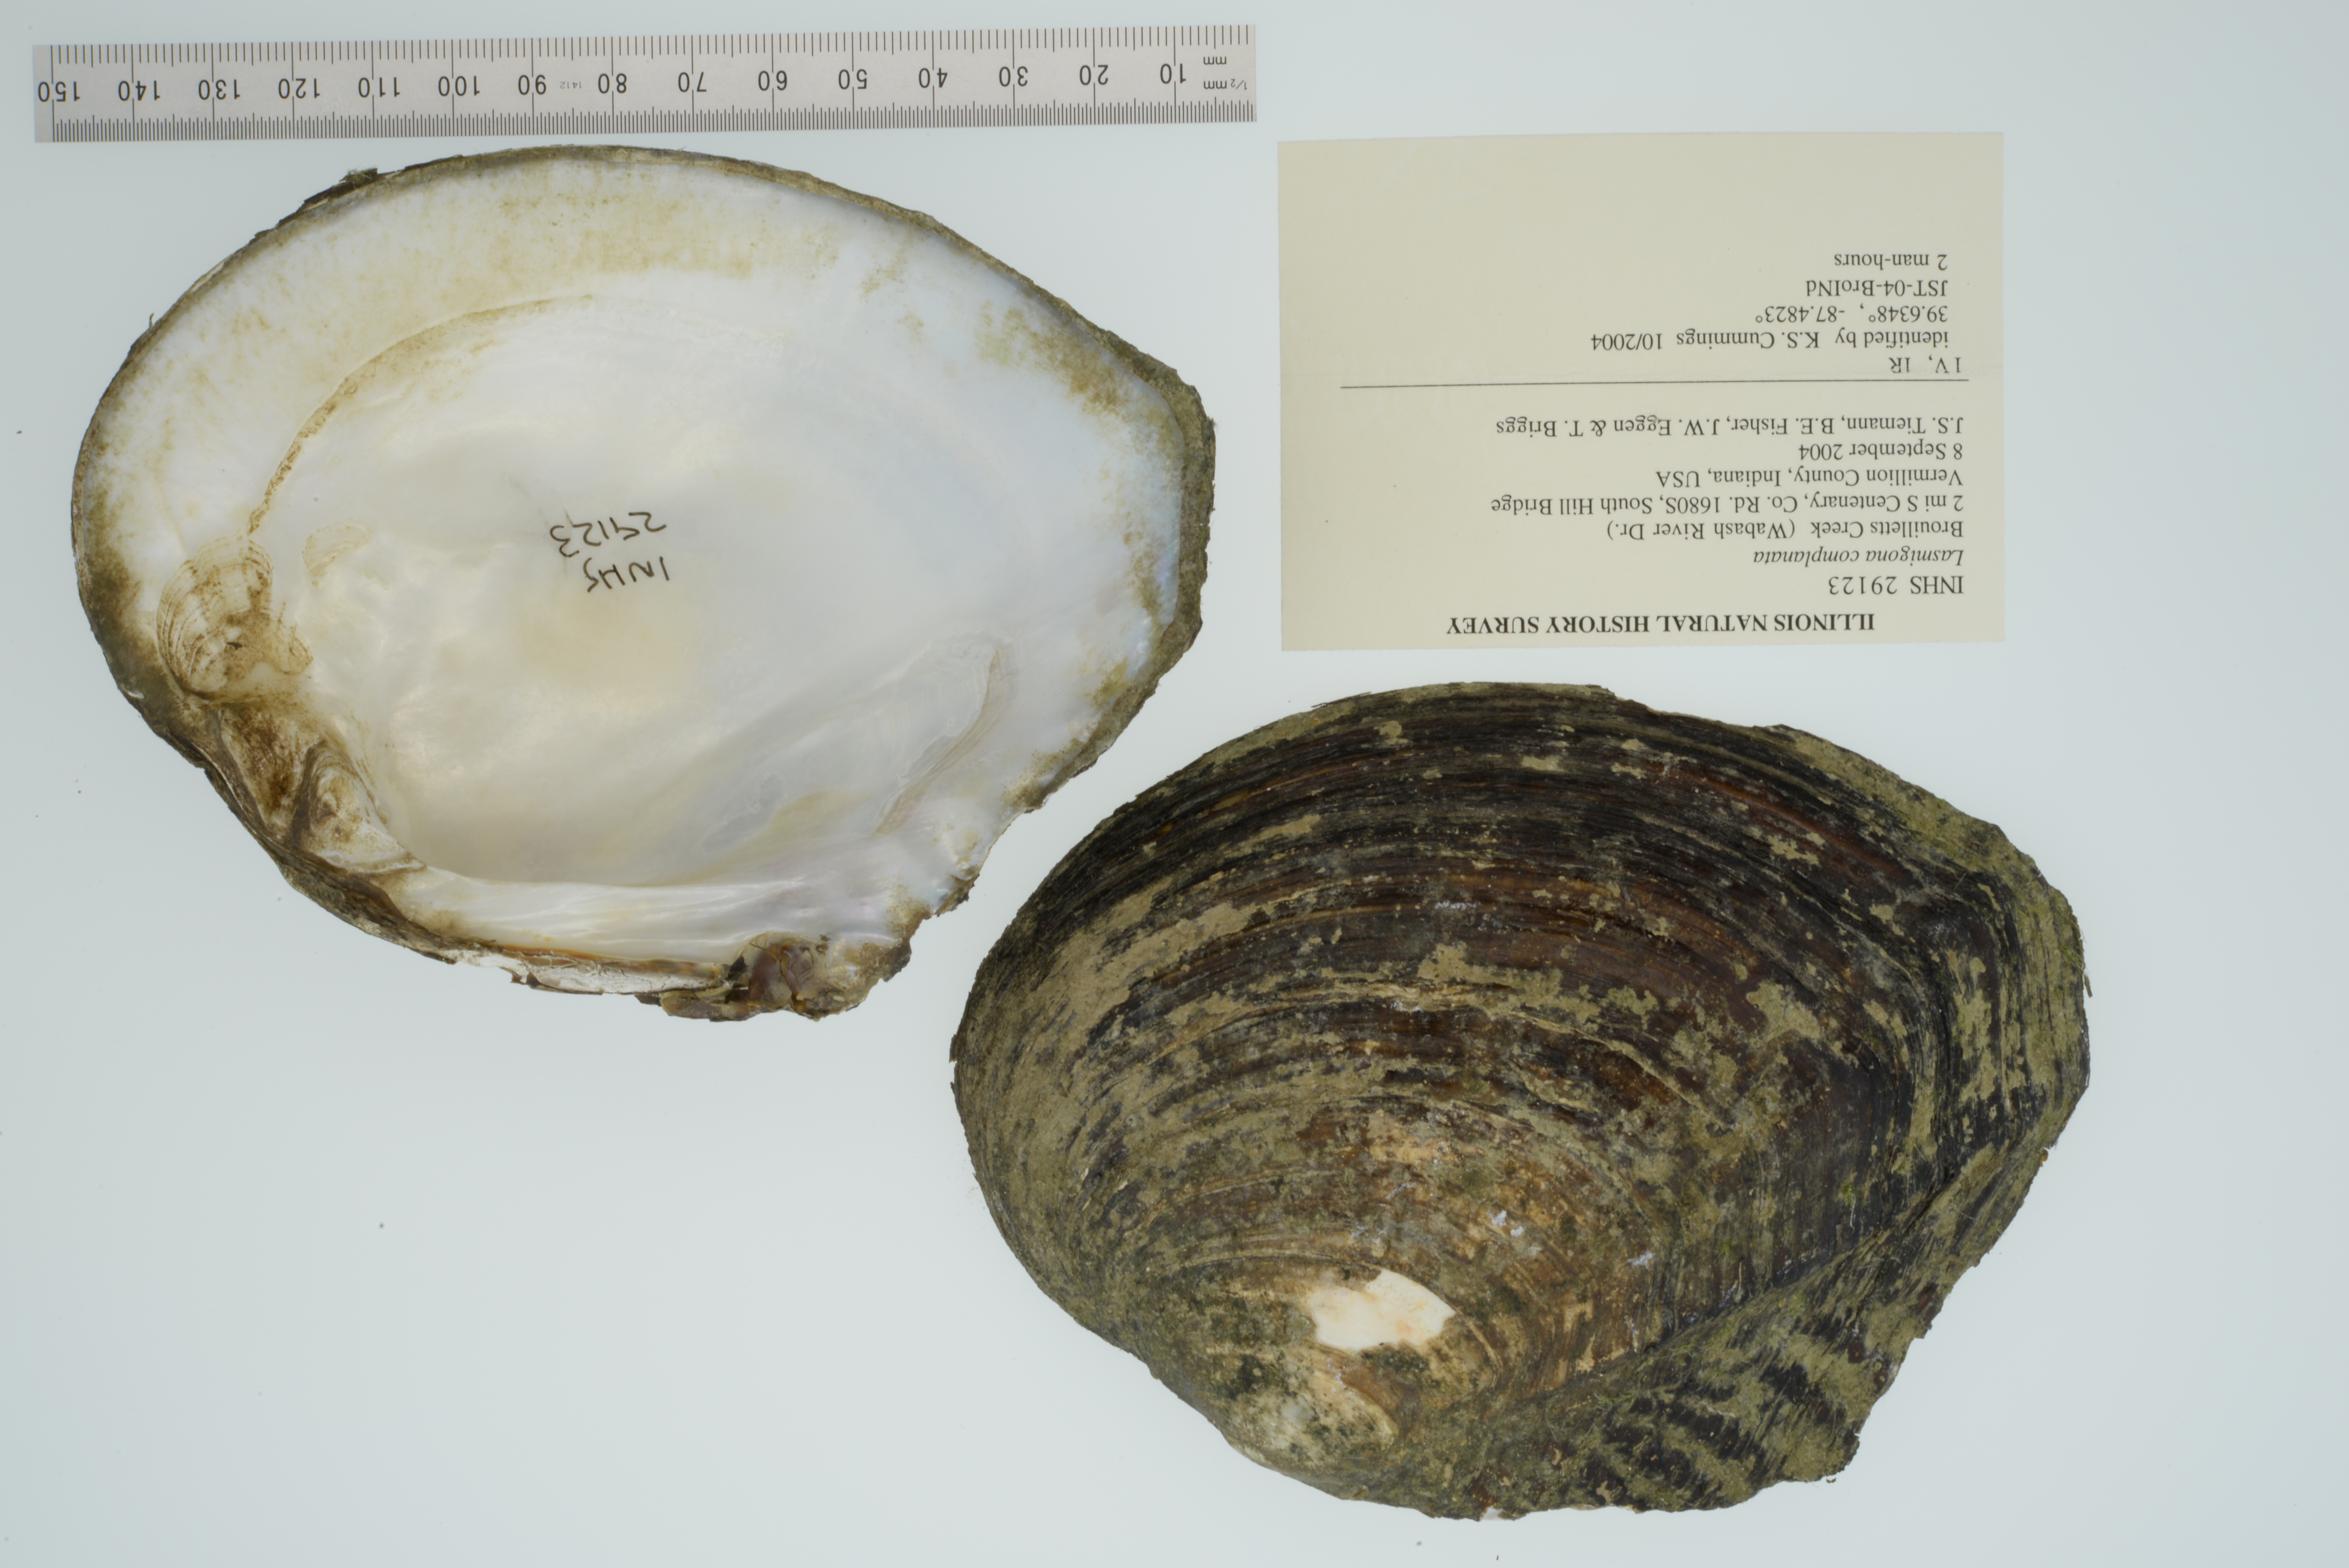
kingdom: Animalia
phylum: Mollusca
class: Bivalvia
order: Unionida
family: Unionidae
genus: Lasmigona
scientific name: Lasmigona complanata
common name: White heelsplitter
